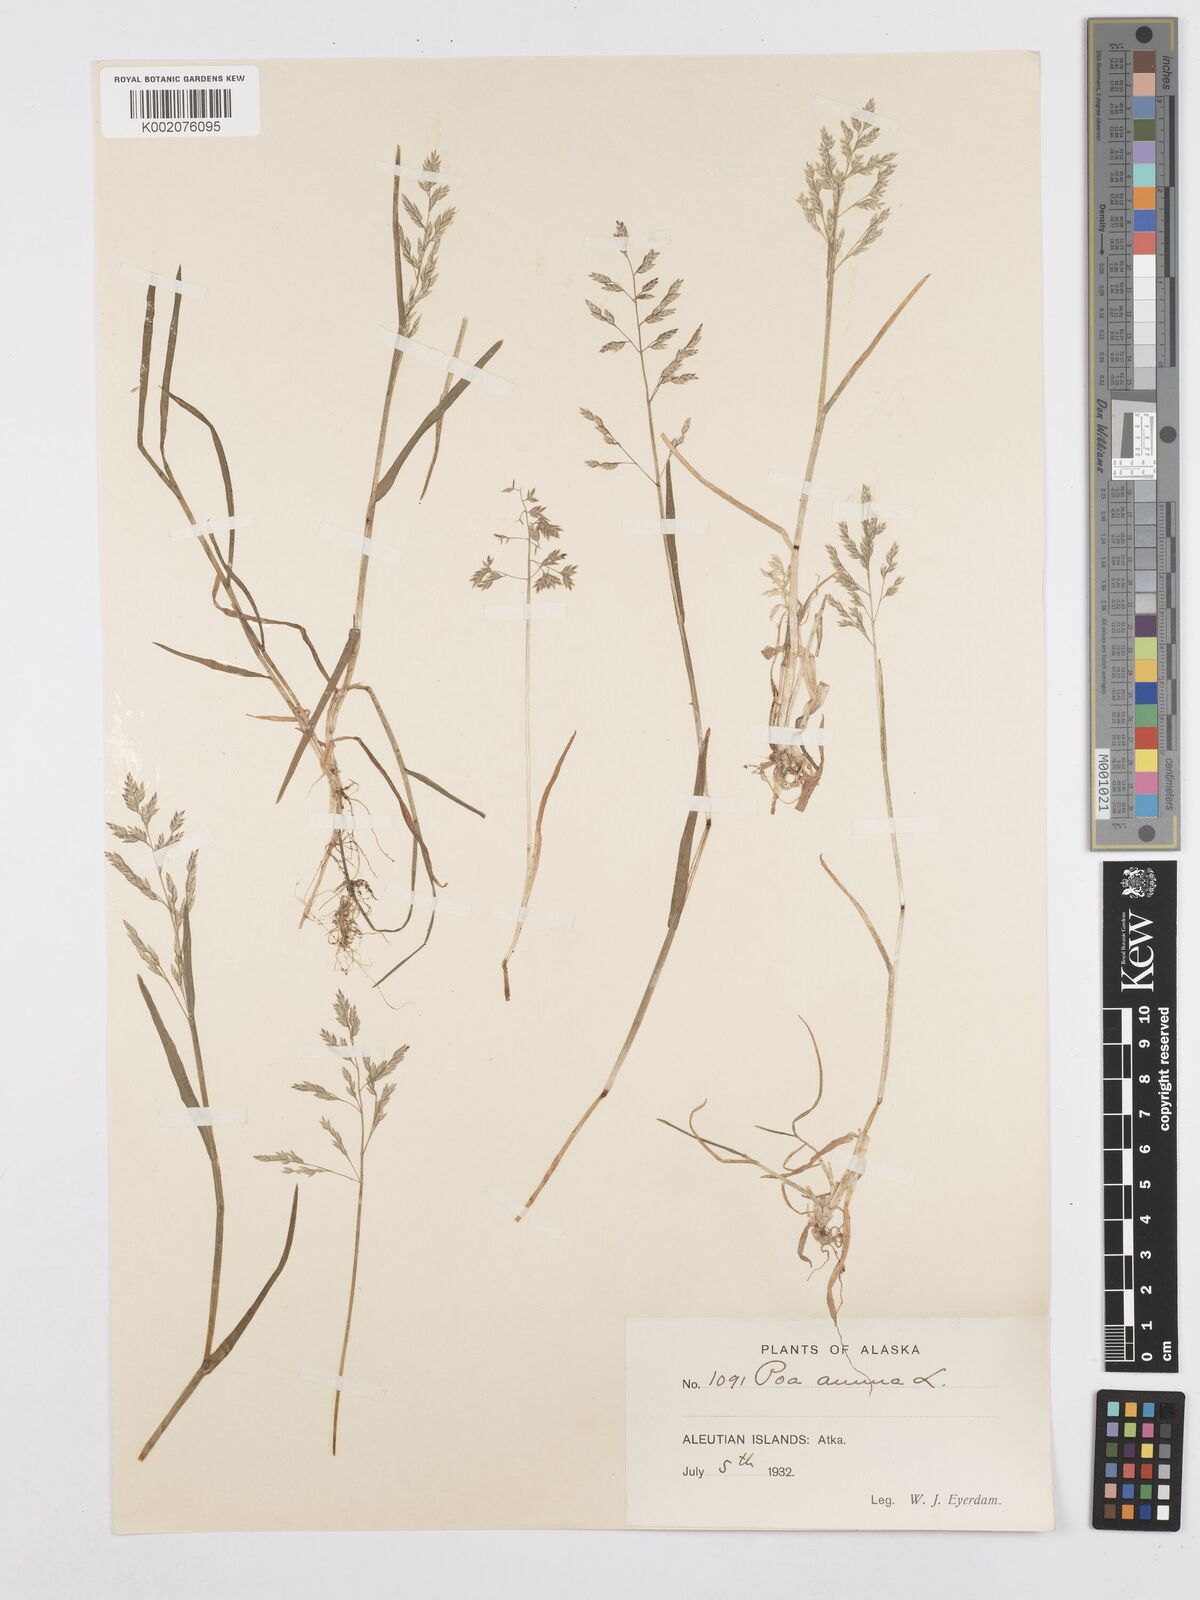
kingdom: Plantae
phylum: Tracheophyta
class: Liliopsida
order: Poales
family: Poaceae
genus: Poa
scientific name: Poa annua
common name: Annual bluegrass
